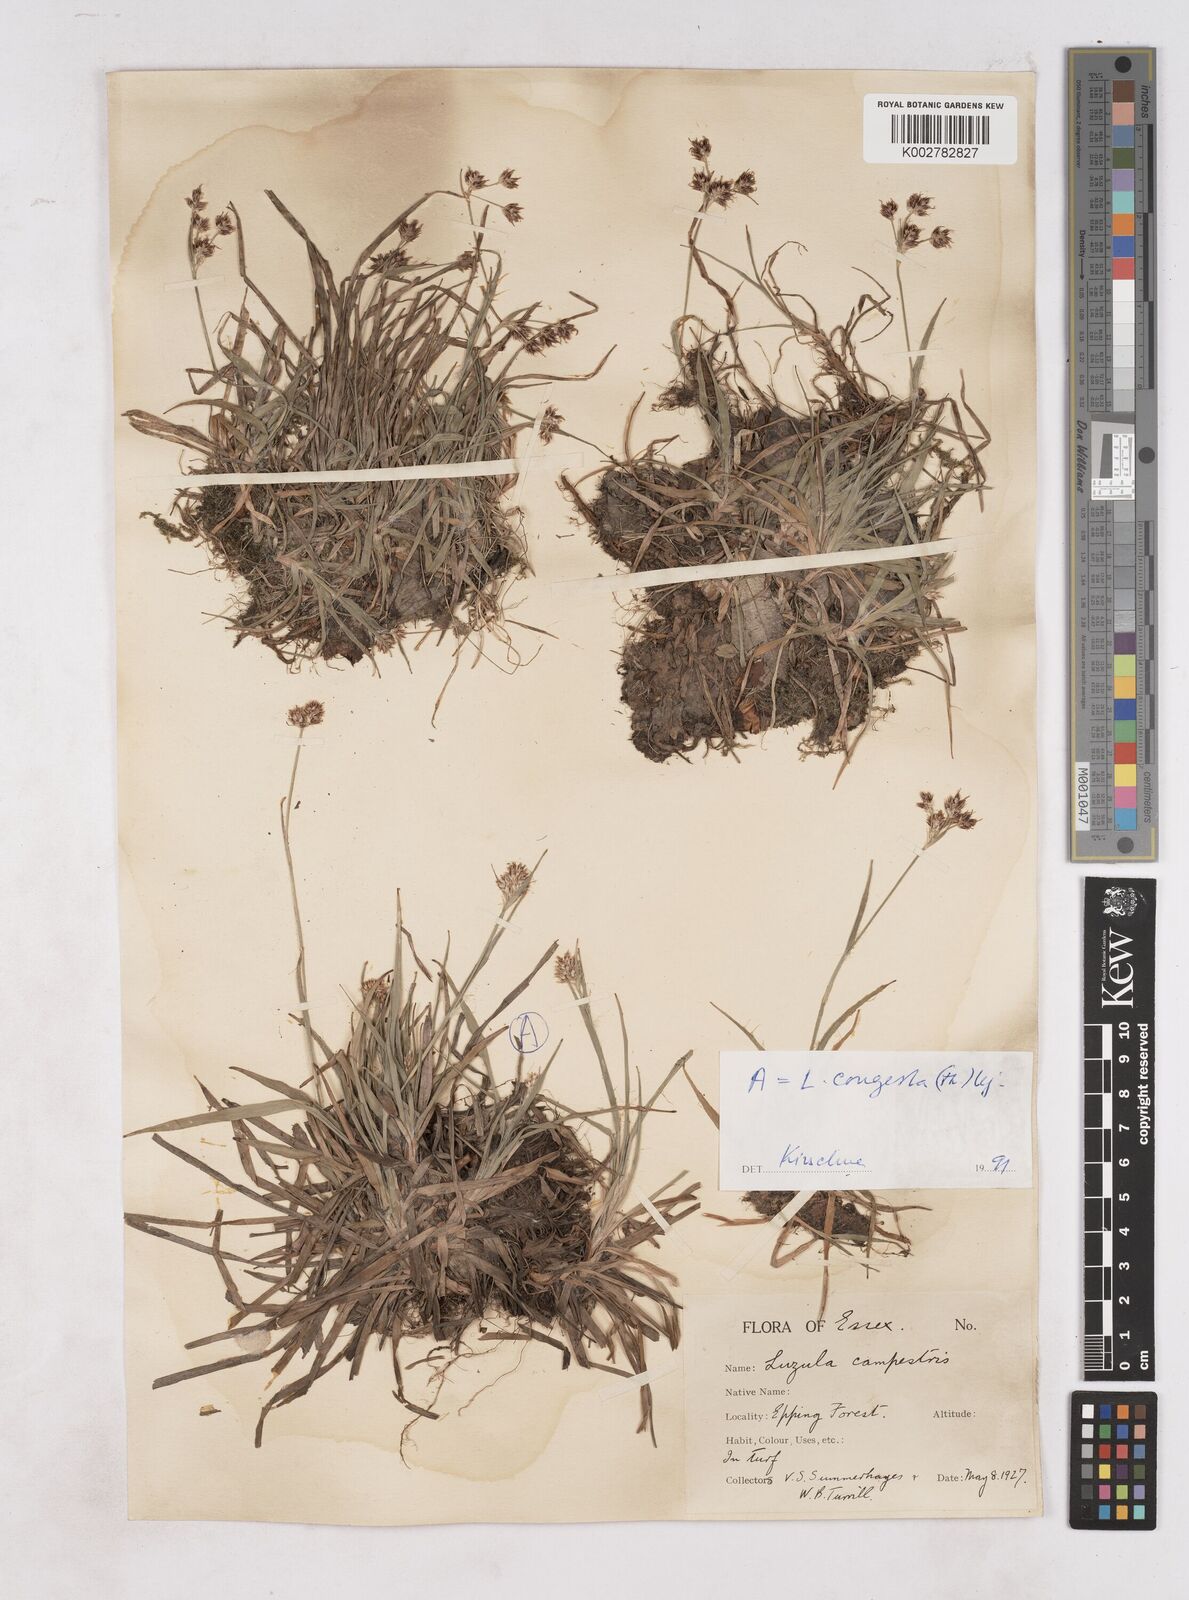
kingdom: Plantae
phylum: Tracheophyta
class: Liliopsida
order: Poales
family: Juncaceae
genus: Luzula
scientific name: Luzula campestris
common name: Field wood-rush
